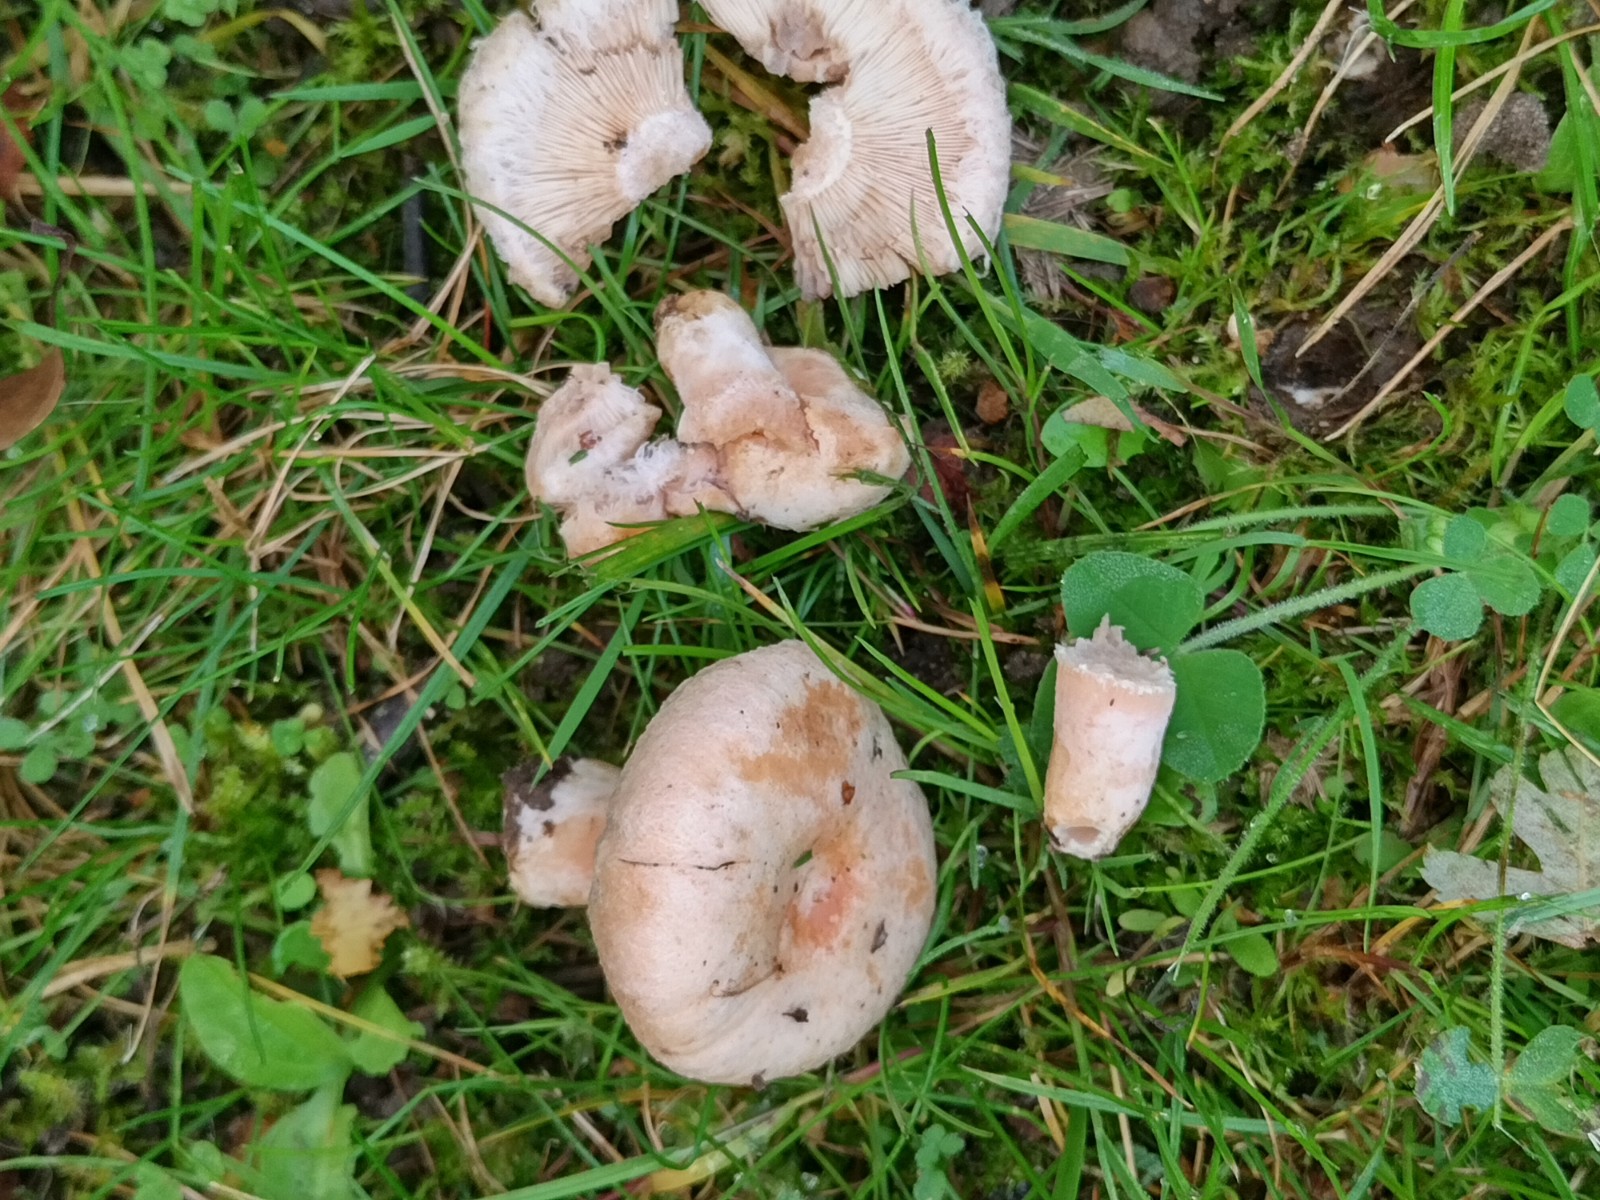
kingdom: Fungi
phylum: Basidiomycota
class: Agaricomycetes
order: Russulales
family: Russulaceae
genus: Lactarius
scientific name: Lactarius pubescens
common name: dunet mælkehat
